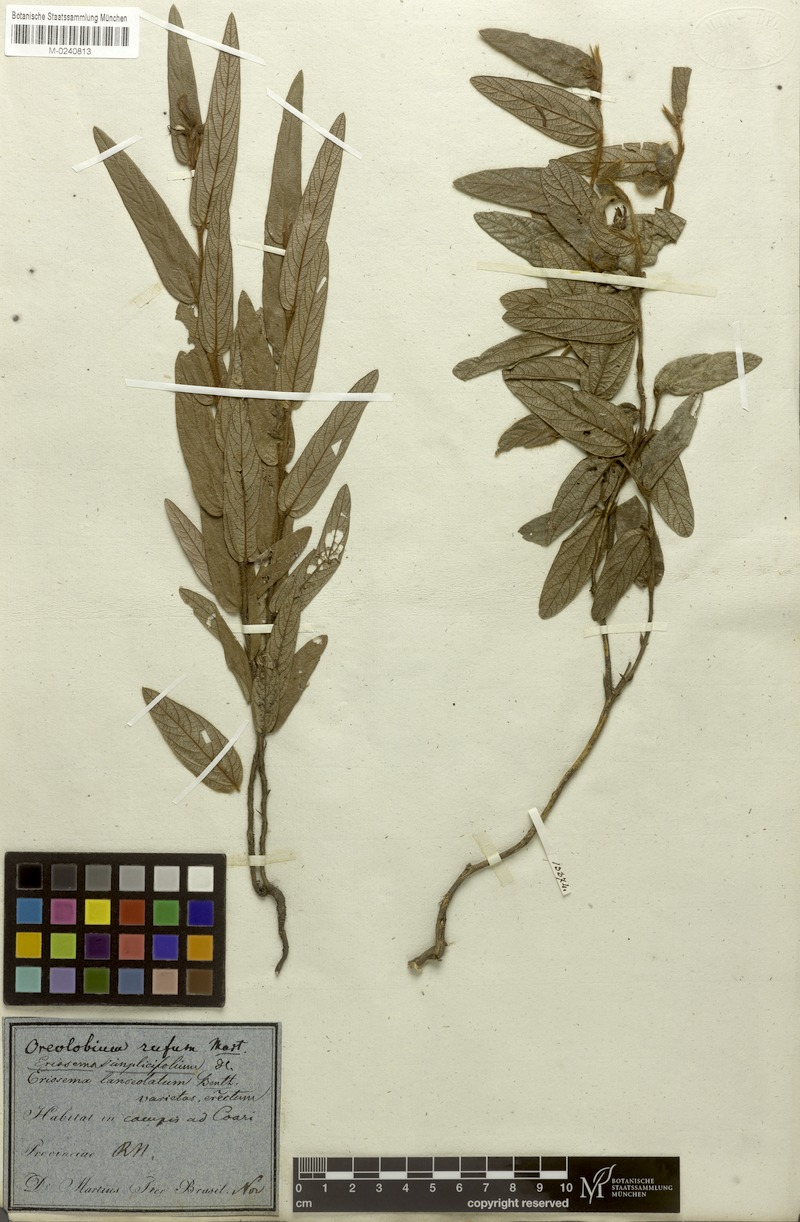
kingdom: Plantae
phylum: Tracheophyta
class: Magnoliopsida
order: Fabales
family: Fabaceae
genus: Eriosema
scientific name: Eriosema simplicifolium
